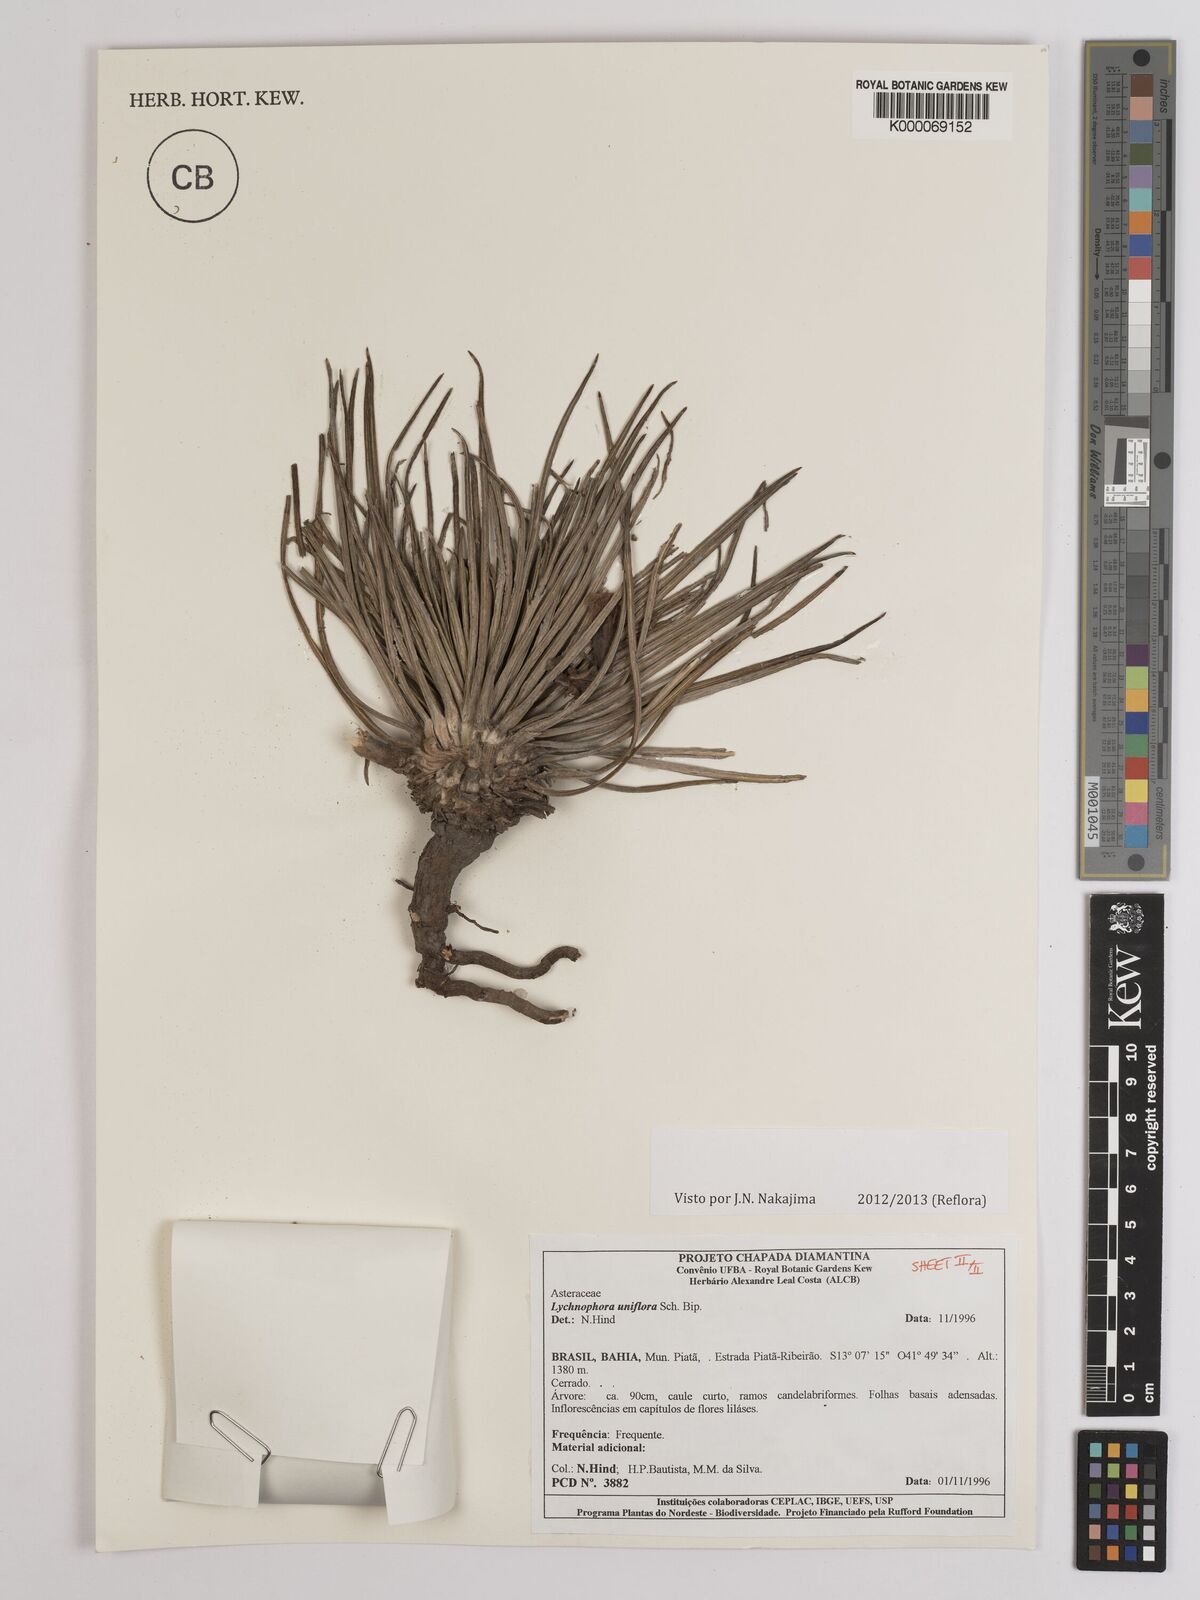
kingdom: Plantae
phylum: Tracheophyta
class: Magnoliopsida
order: Asterales
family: Asteraceae
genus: Lychnophora
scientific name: Lychnophora uniflora
